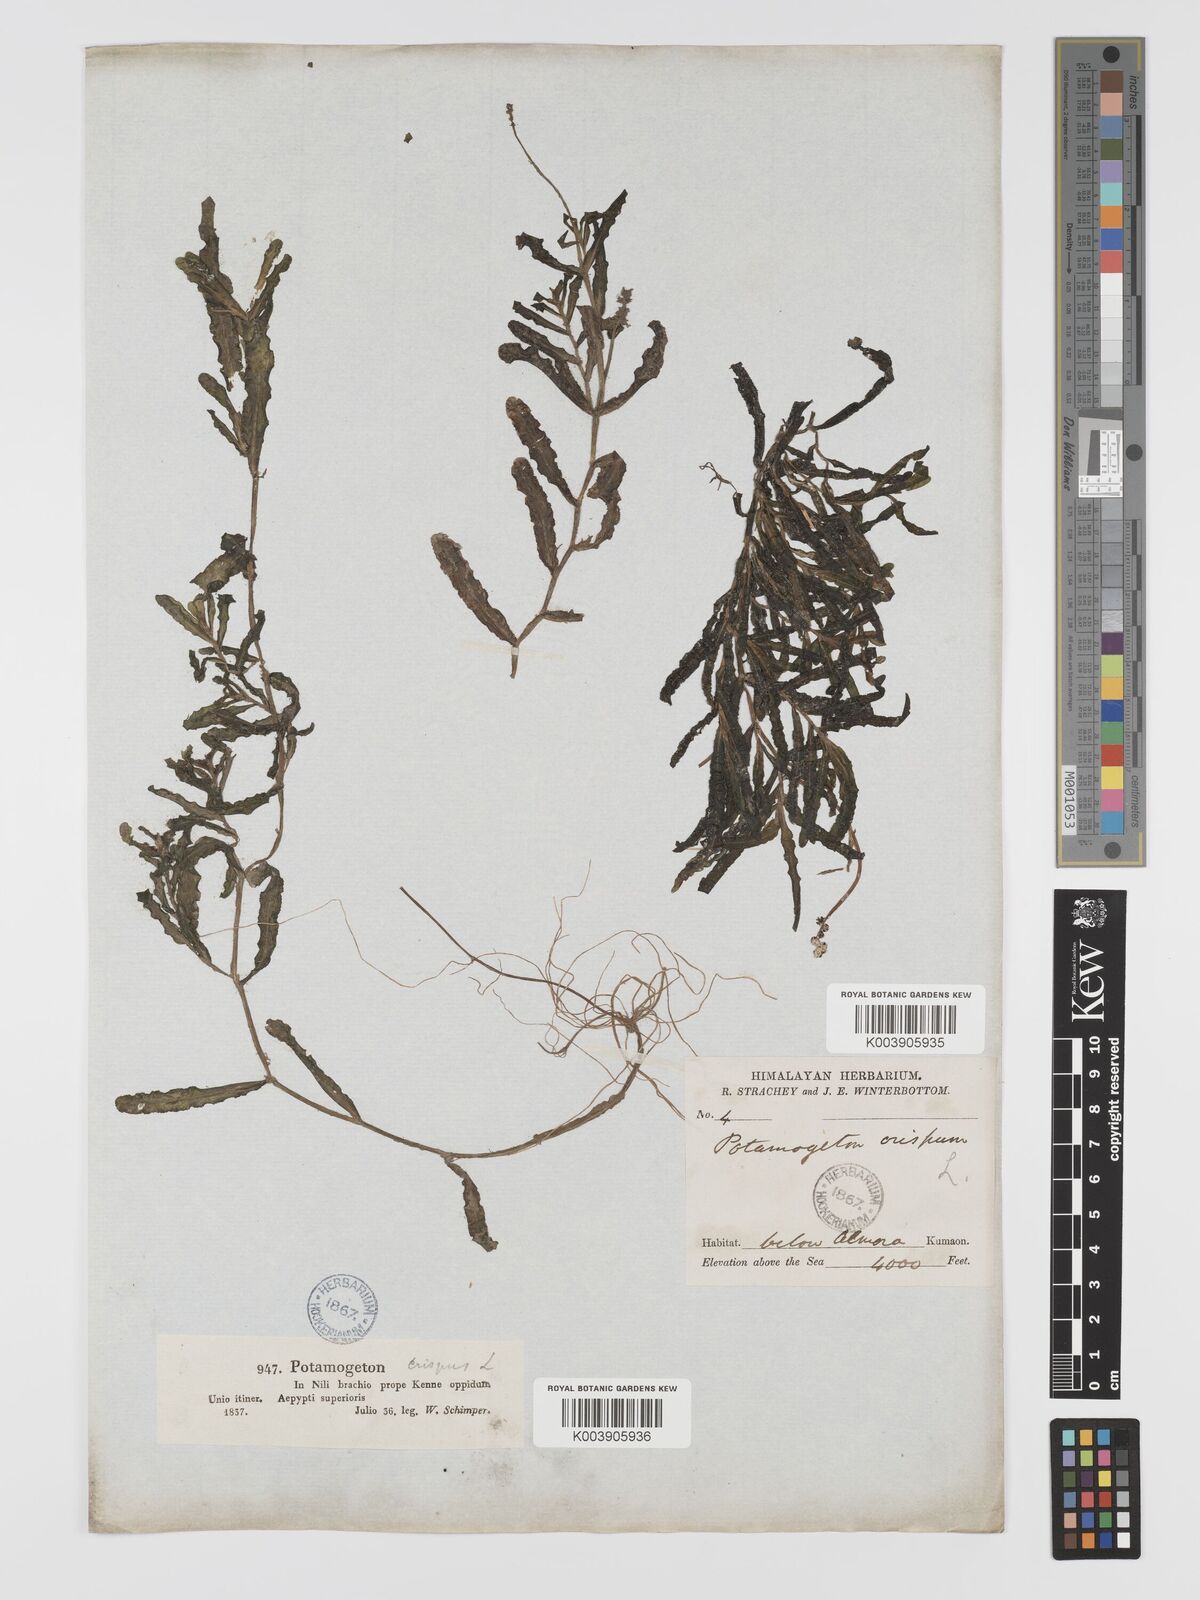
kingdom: Plantae
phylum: Tracheophyta
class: Liliopsida
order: Alismatales
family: Potamogetonaceae
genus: Potamogeton
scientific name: Potamogeton crispus
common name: Curled pondweed
